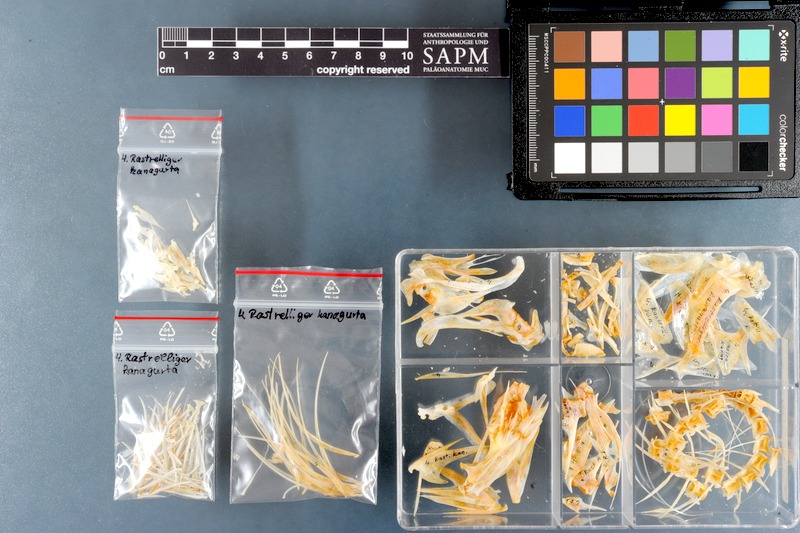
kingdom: Animalia
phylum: Chordata
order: Perciformes
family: Scombridae
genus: Rastrelliger
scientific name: Rastrelliger kanagurta
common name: Indian mackerel
